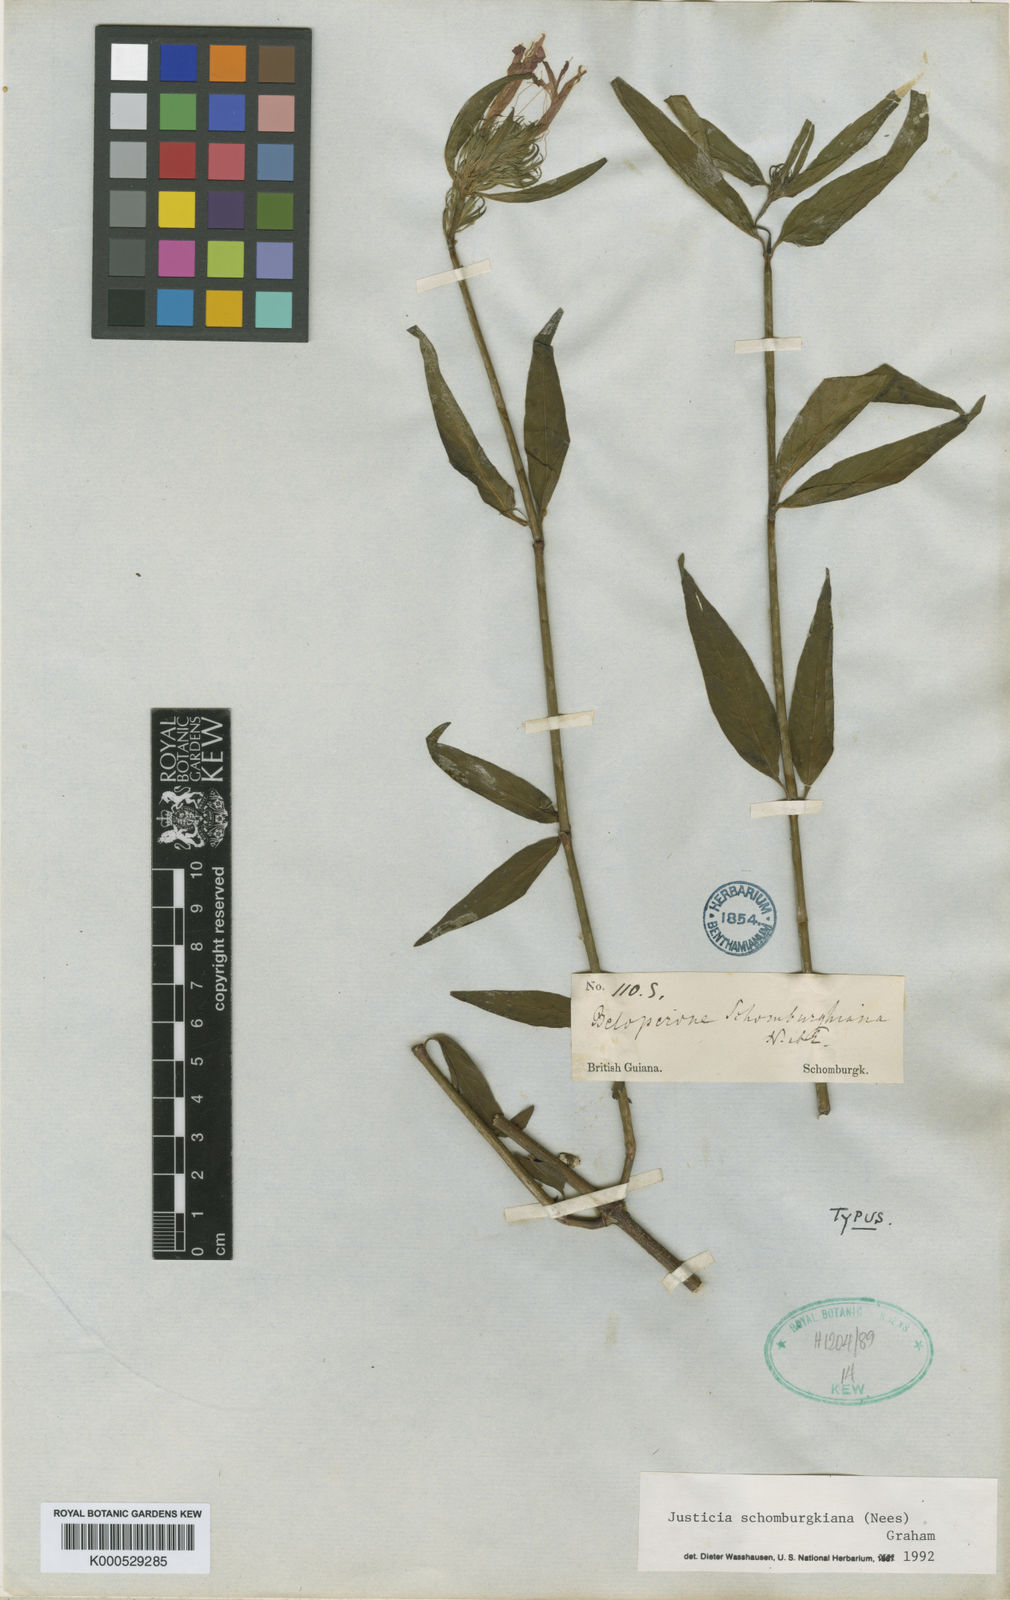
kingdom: Plantae
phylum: Tracheophyta
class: Magnoliopsida
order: Lamiales
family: Acanthaceae
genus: Justicia
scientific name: Justicia schomburgkiana
